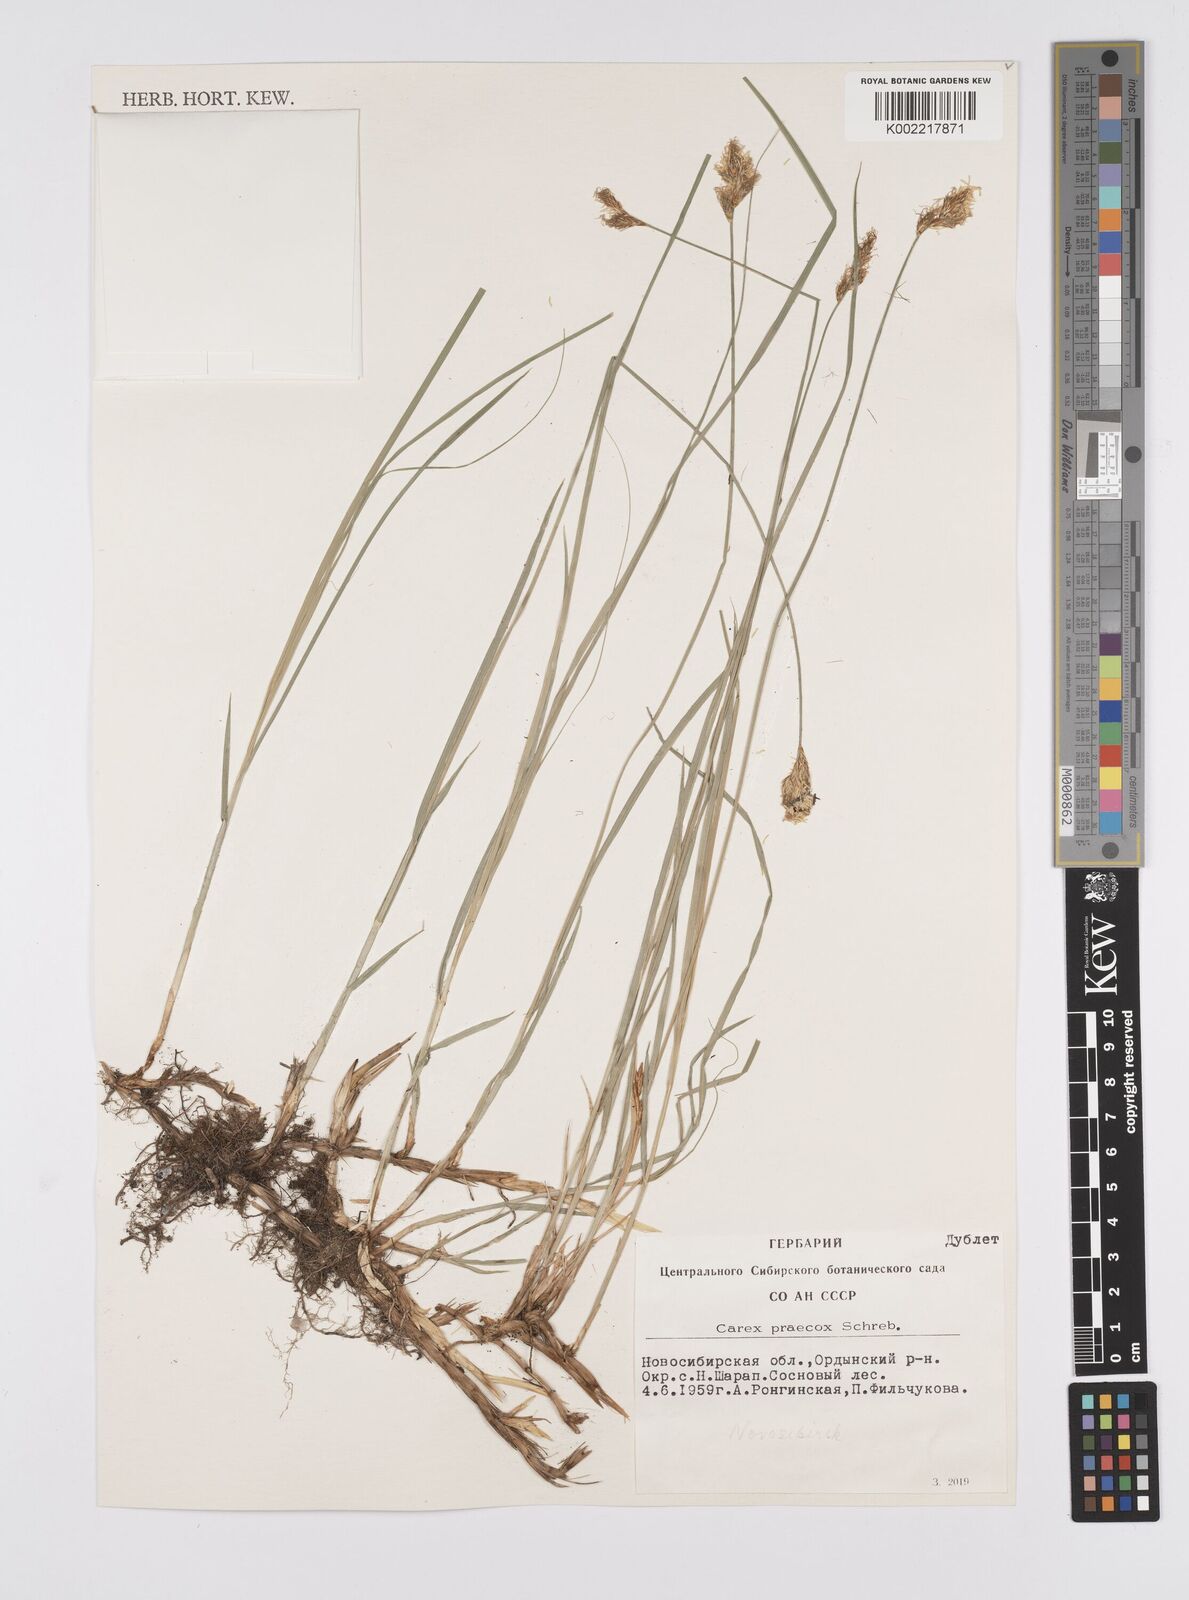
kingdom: Plantae
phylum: Tracheophyta
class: Liliopsida
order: Poales
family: Cyperaceae
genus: Carex
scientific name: Carex praecox
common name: Early sedge
